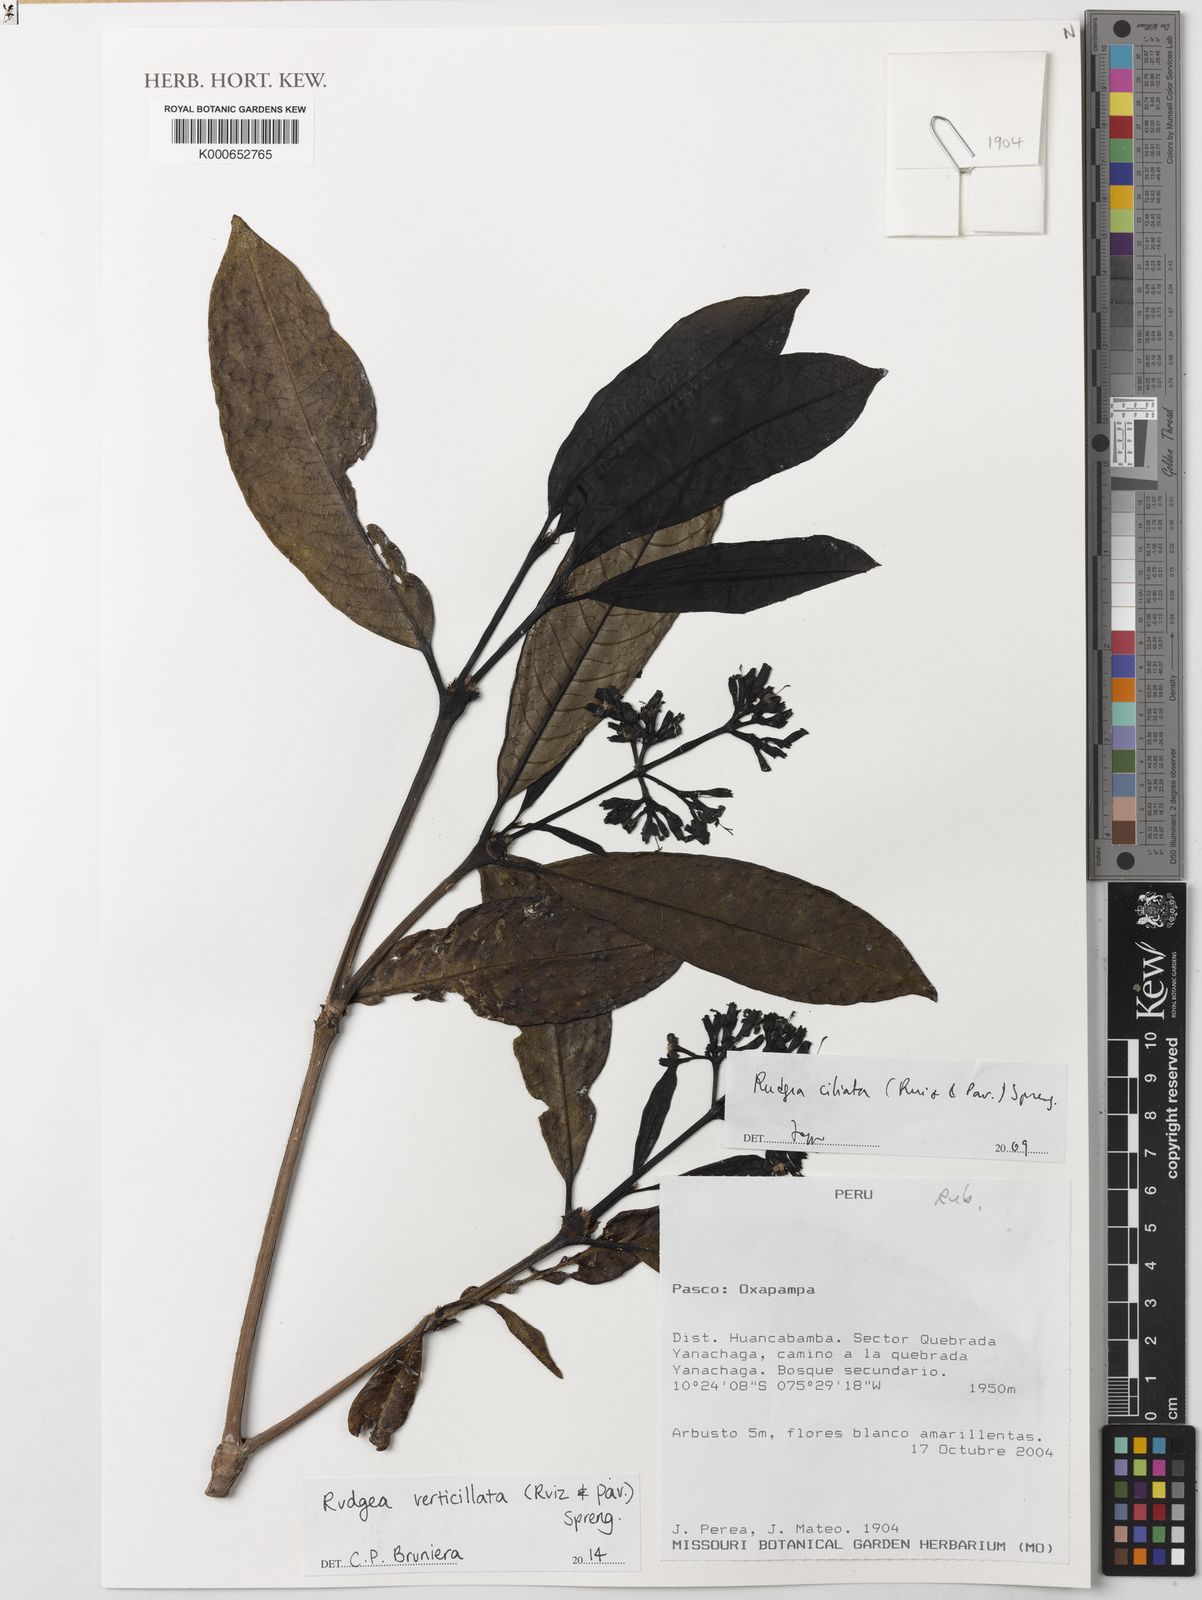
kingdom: Plantae
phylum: Tracheophyta
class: Magnoliopsida
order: Gentianales
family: Rubiaceae
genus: Rudgea
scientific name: Rudgea verticillata
